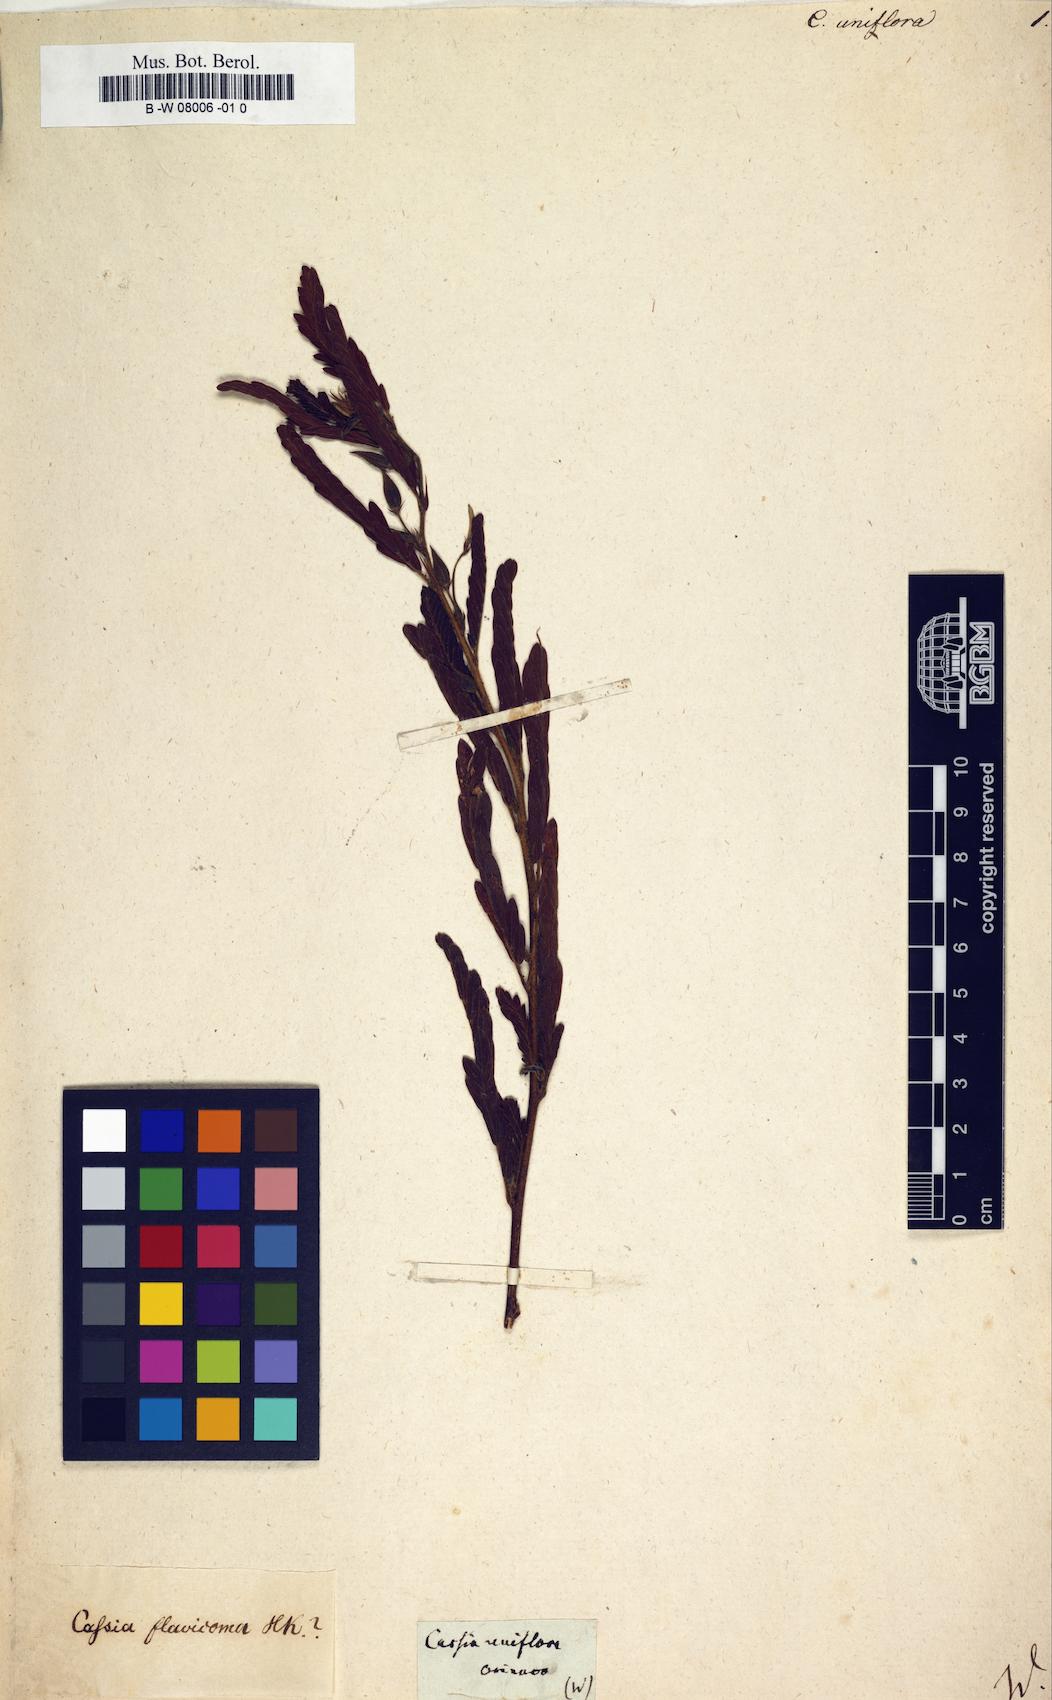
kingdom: Plantae
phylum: Tracheophyta
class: Magnoliopsida
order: Fabales
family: Fabaceae
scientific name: Fabaceae
